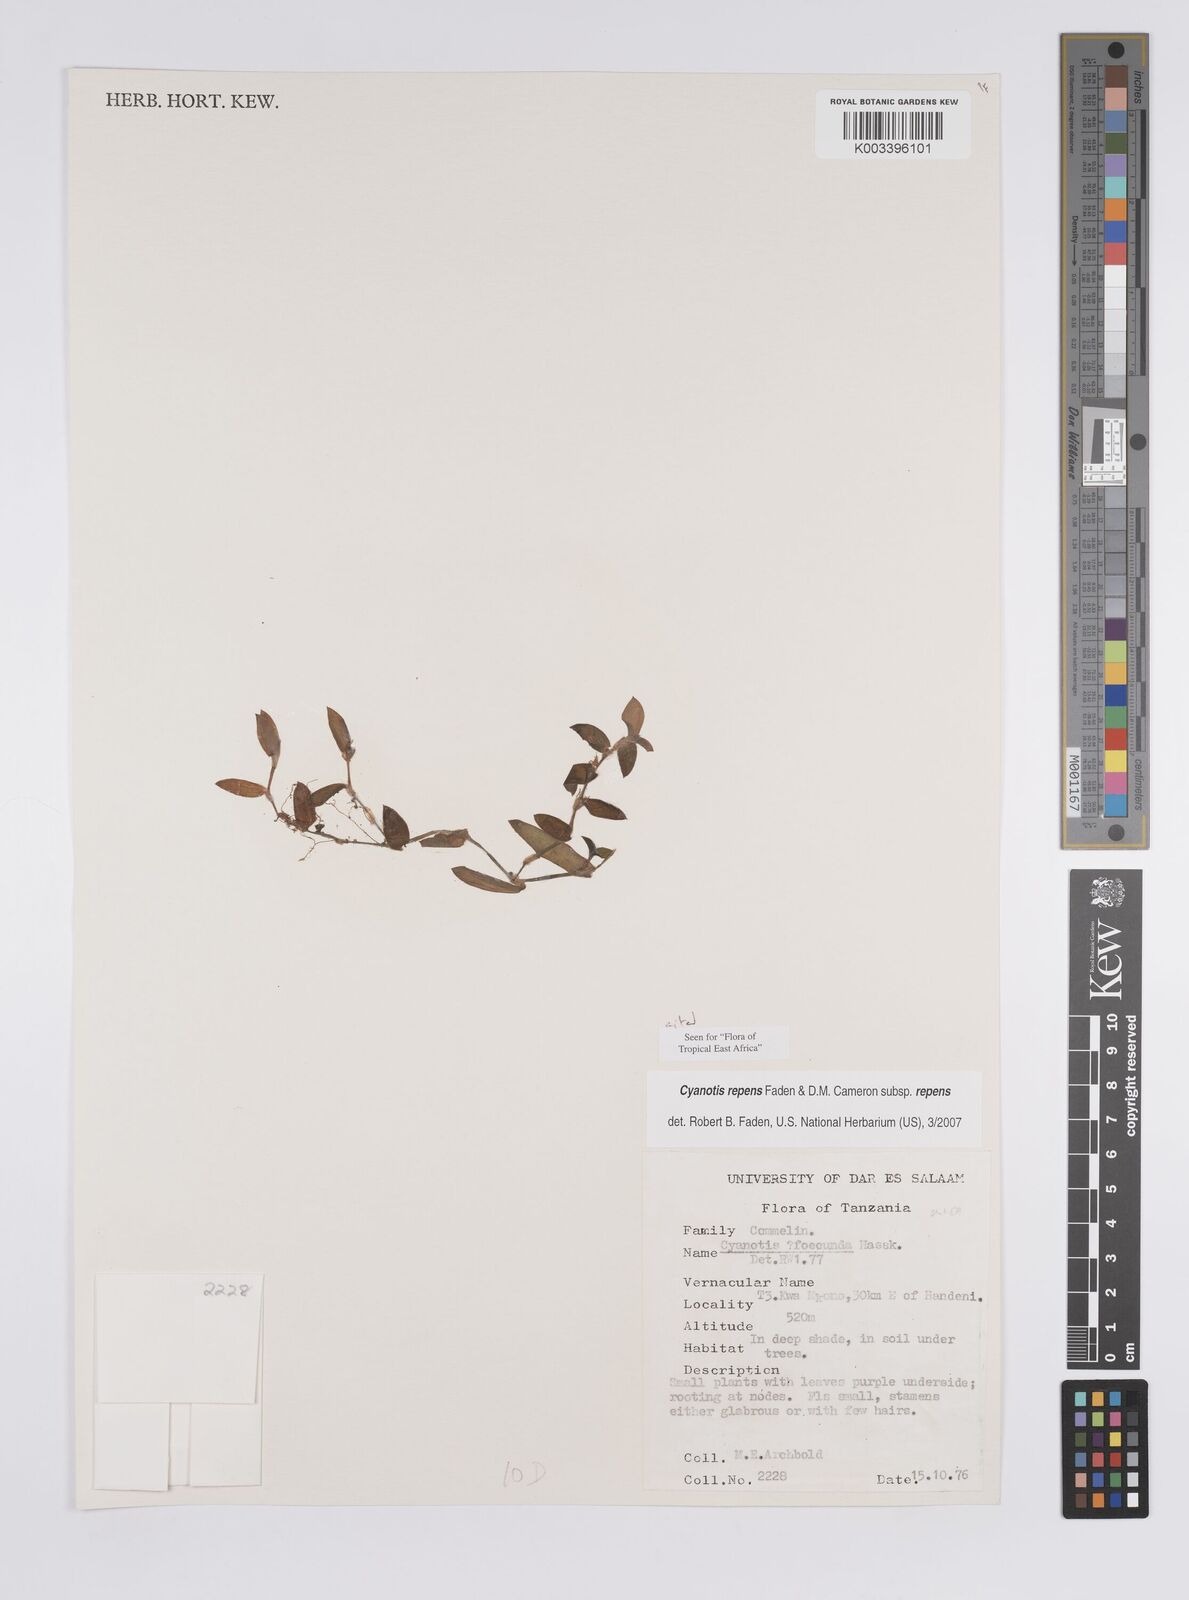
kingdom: Plantae
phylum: Tracheophyta
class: Liliopsida
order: Commelinales
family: Commelinaceae
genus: Cyanotis
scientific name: Cyanotis repens
